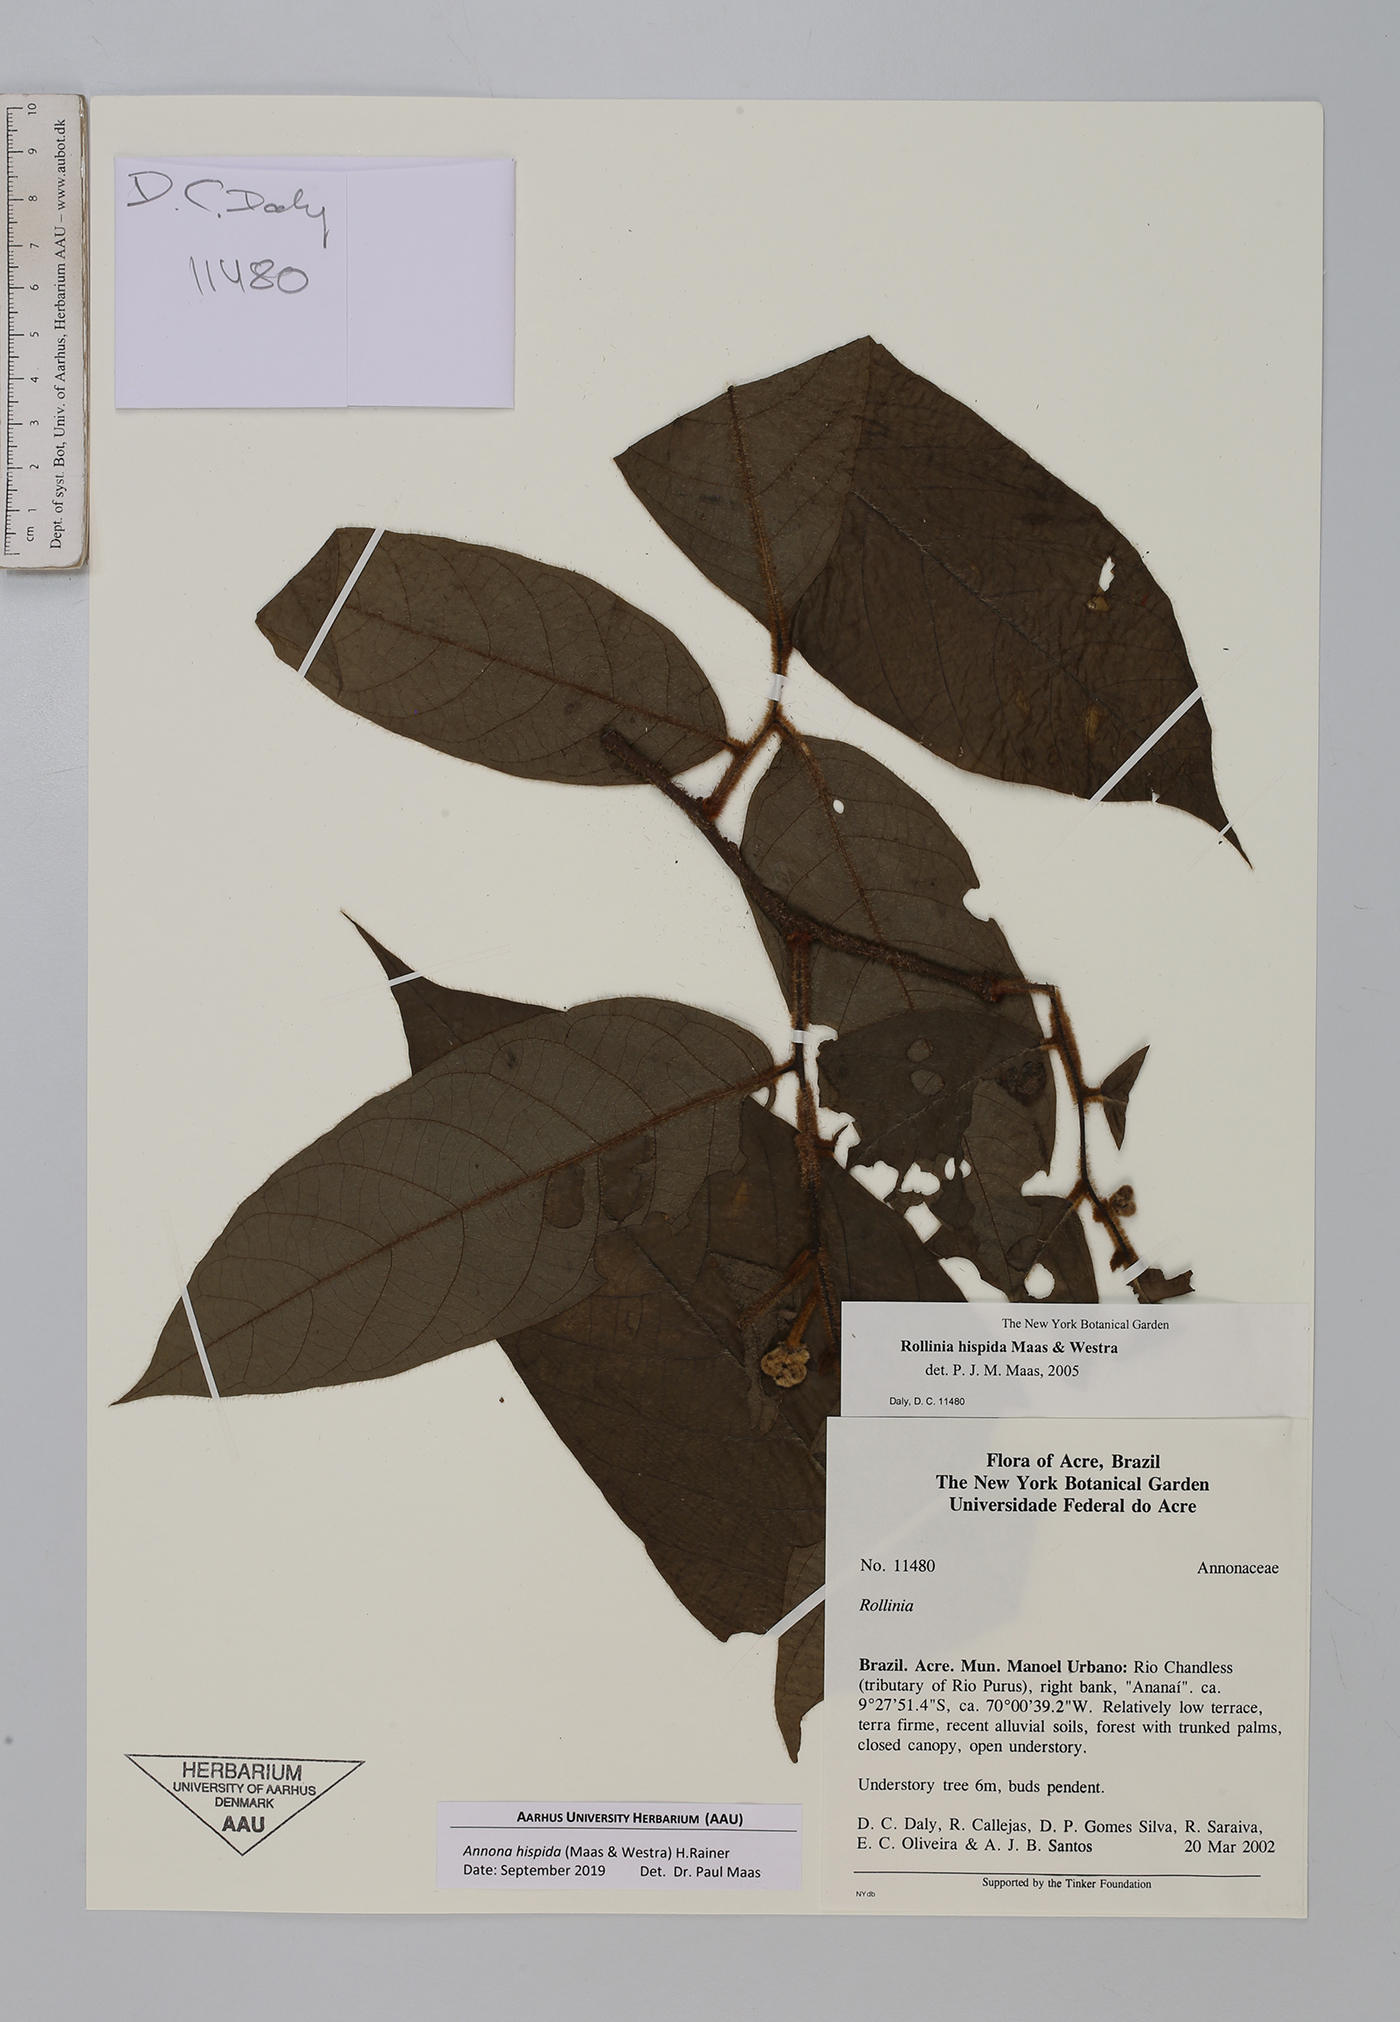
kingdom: Plantae
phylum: Tracheophyta
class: Magnoliopsida
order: Magnoliales
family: Annonaceae
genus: Annona
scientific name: Annona hispida
